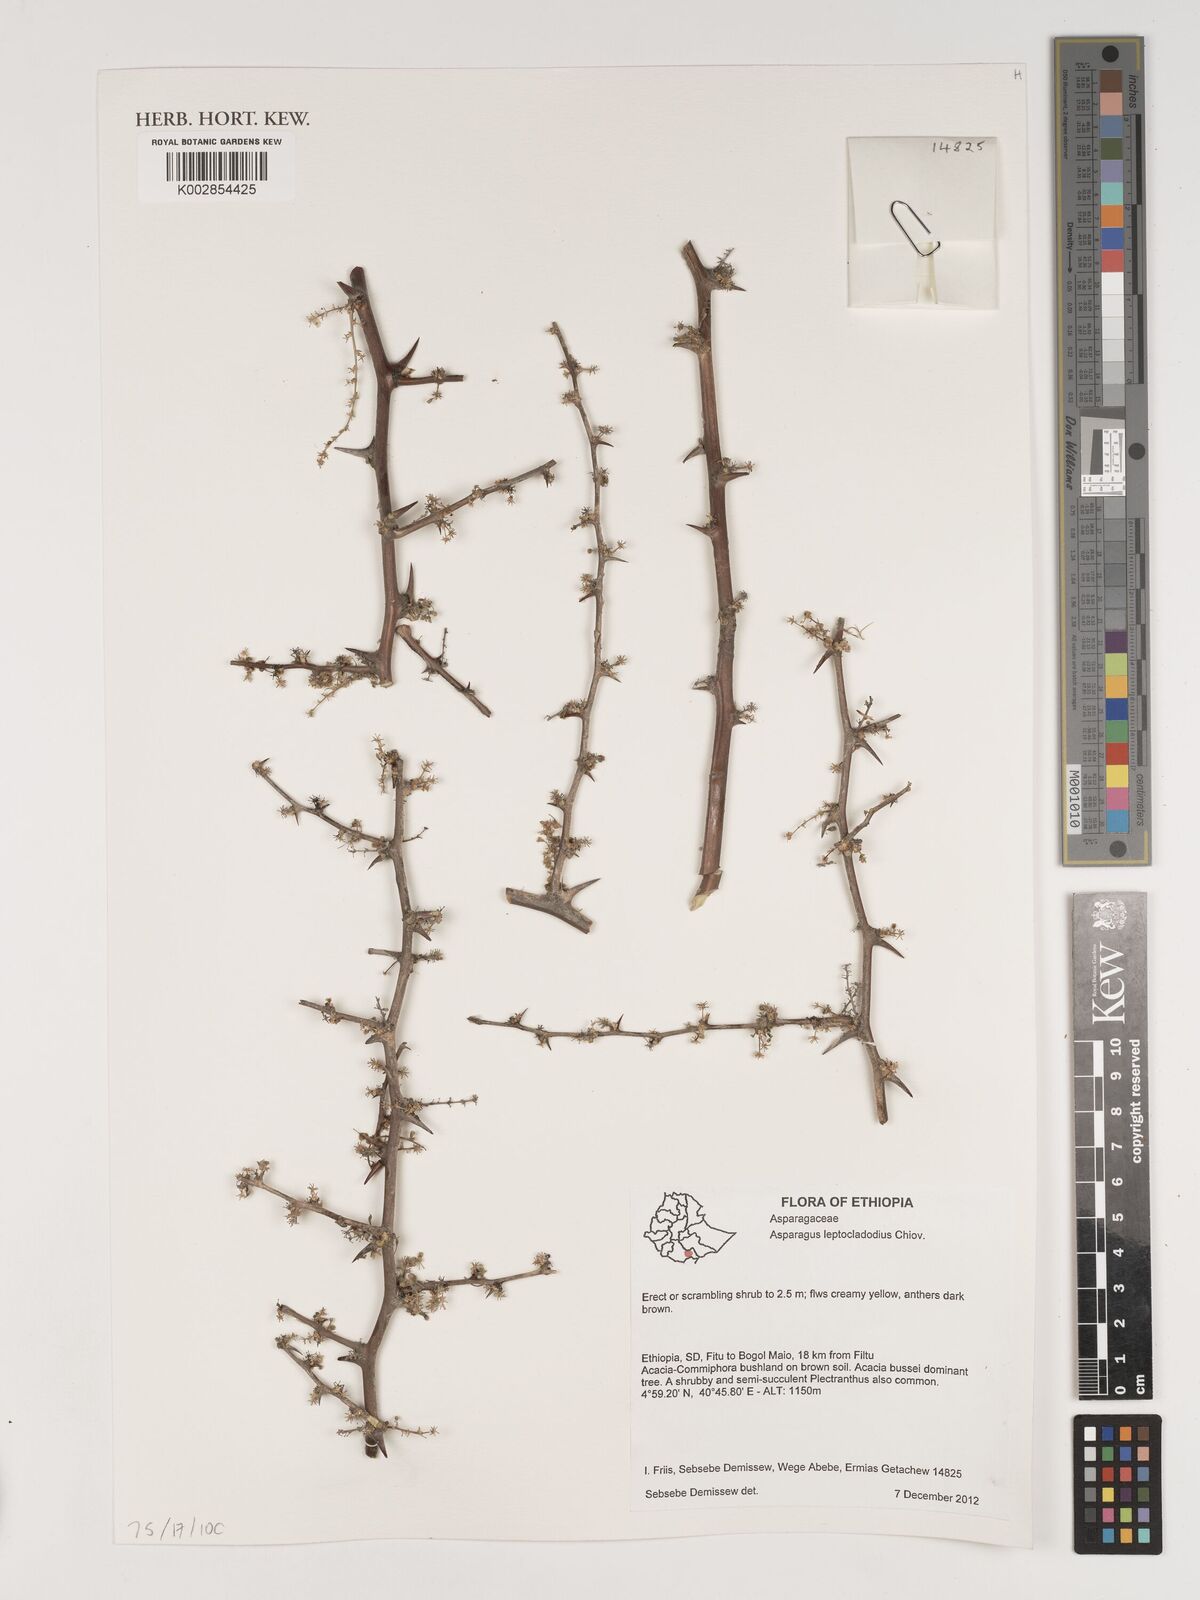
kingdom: Plantae
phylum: Tracheophyta
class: Liliopsida
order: Asparagales
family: Asparagaceae
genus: Asparagus
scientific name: Asparagus leptocladodius
